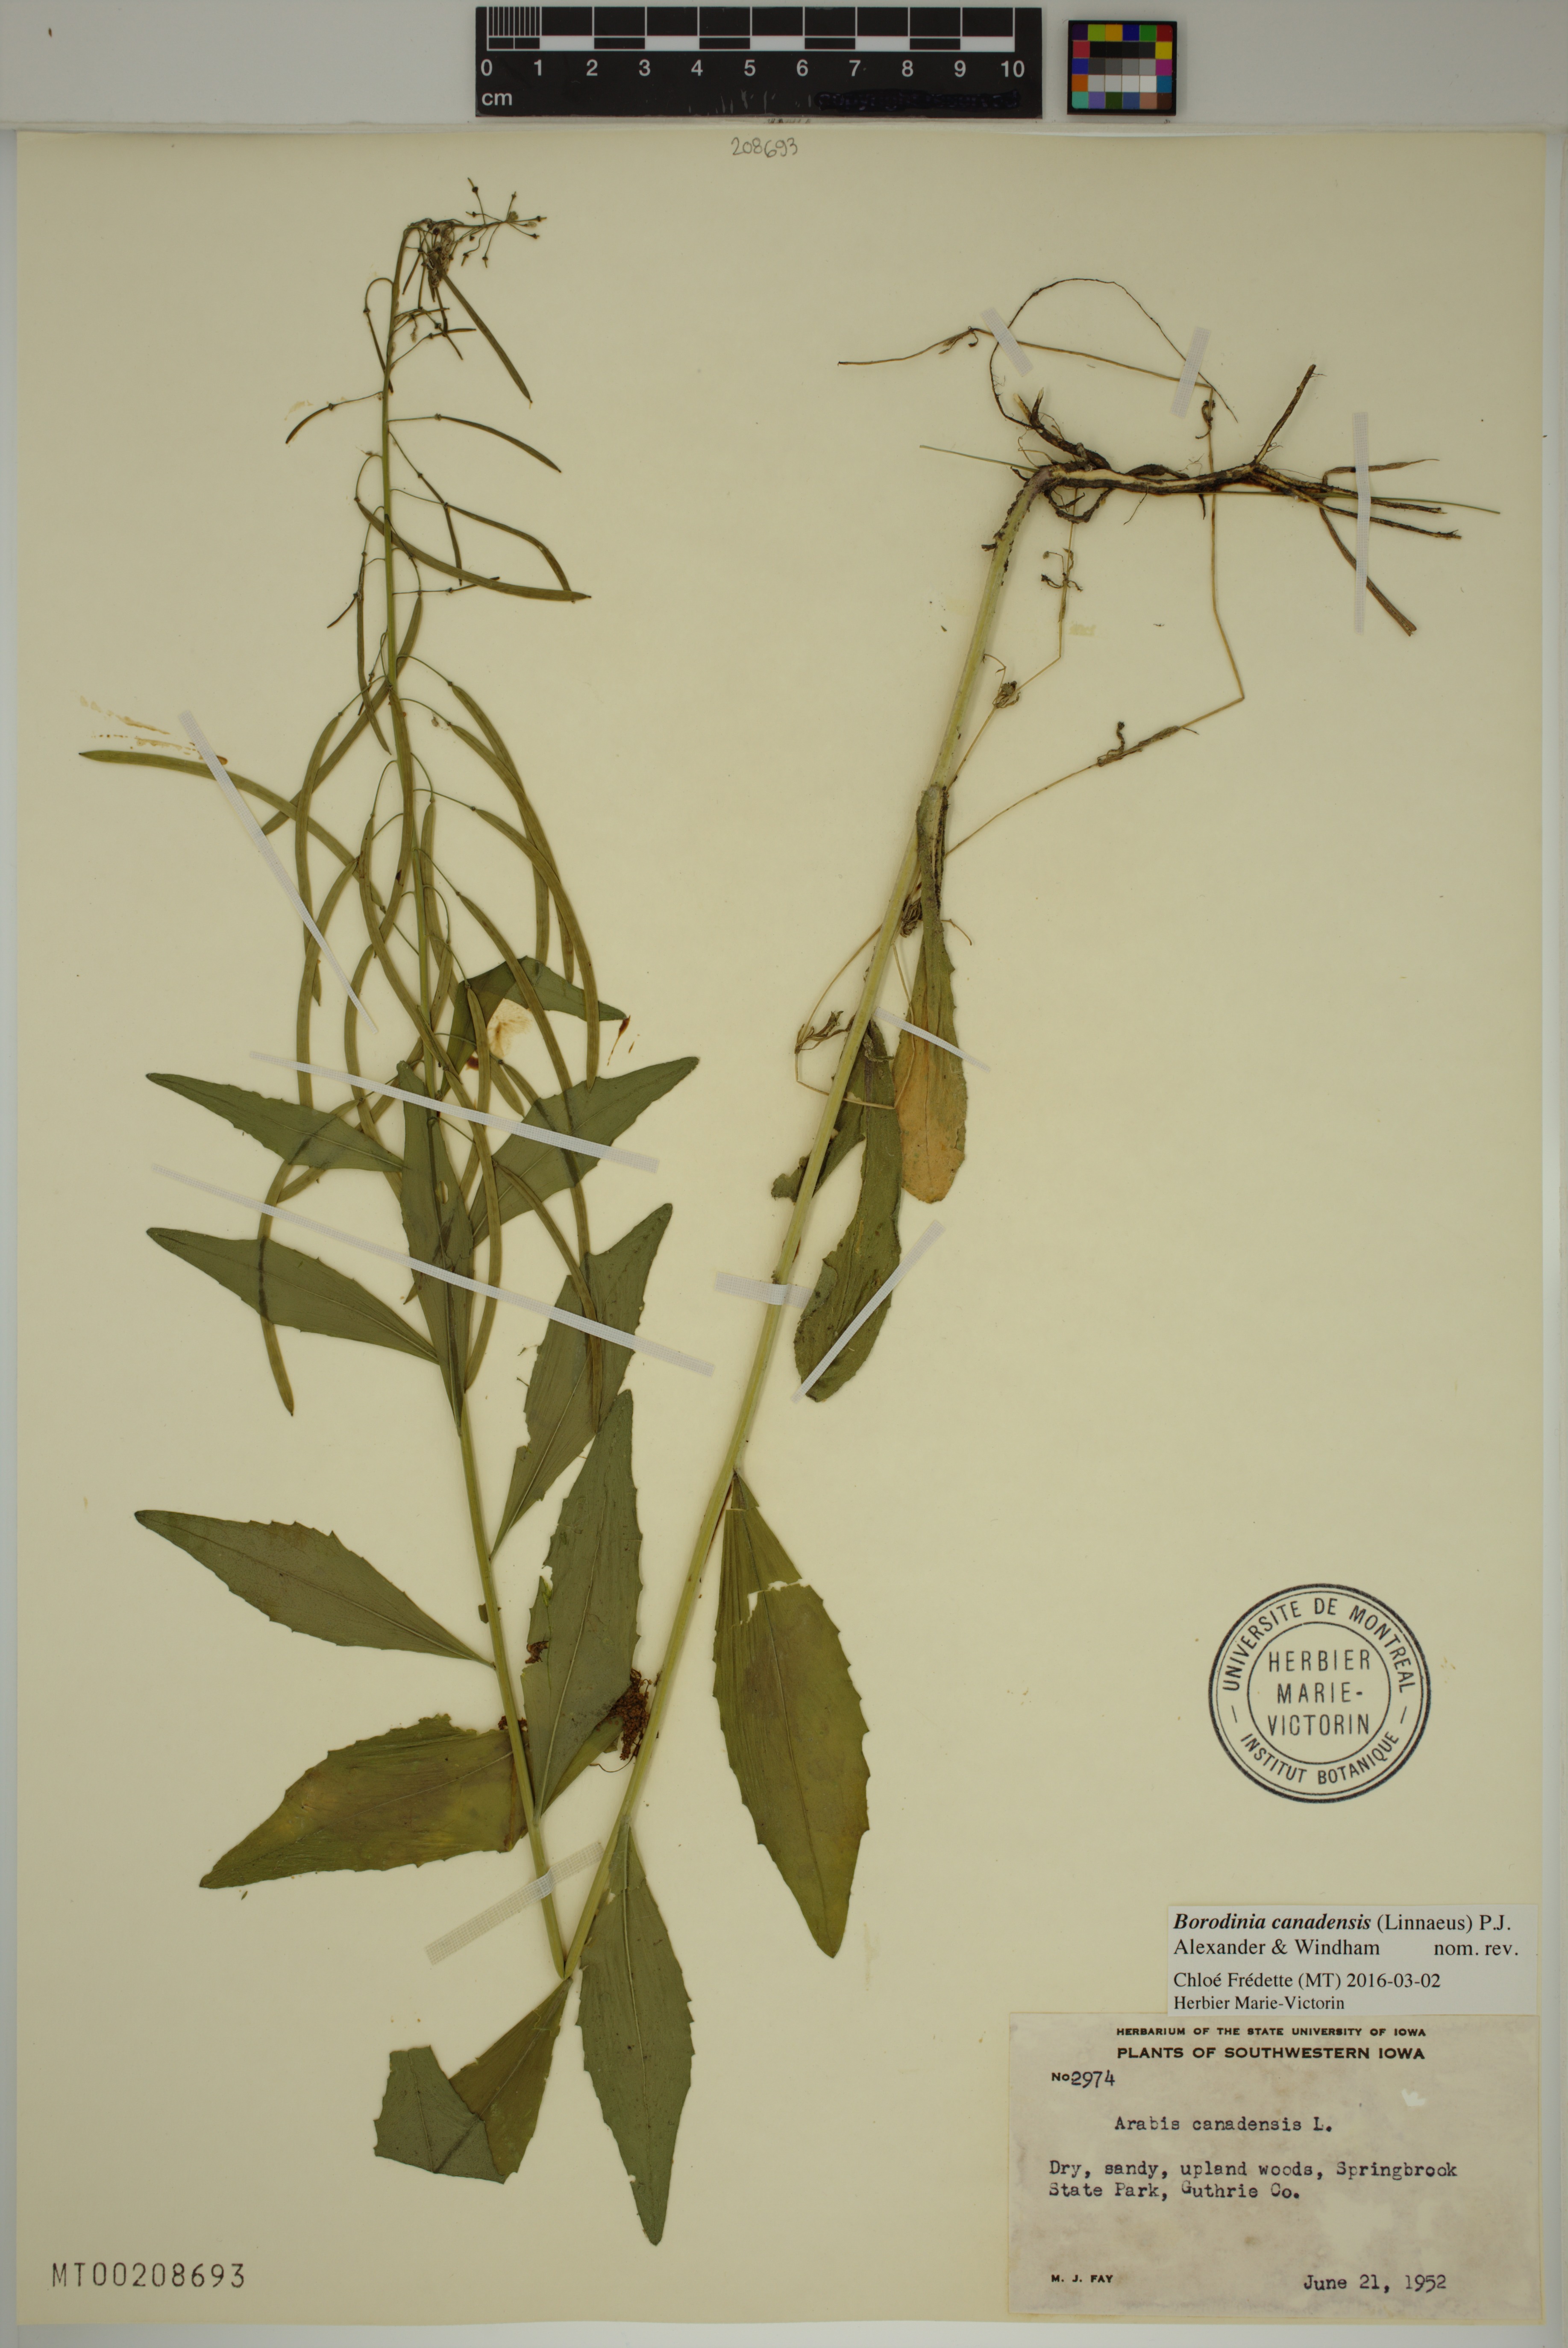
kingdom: Plantae
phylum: Tracheophyta
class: Magnoliopsida
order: Brassicales
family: Brassicaceae
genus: Borodinia
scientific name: Borodinia canadensis
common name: Sicklepod
